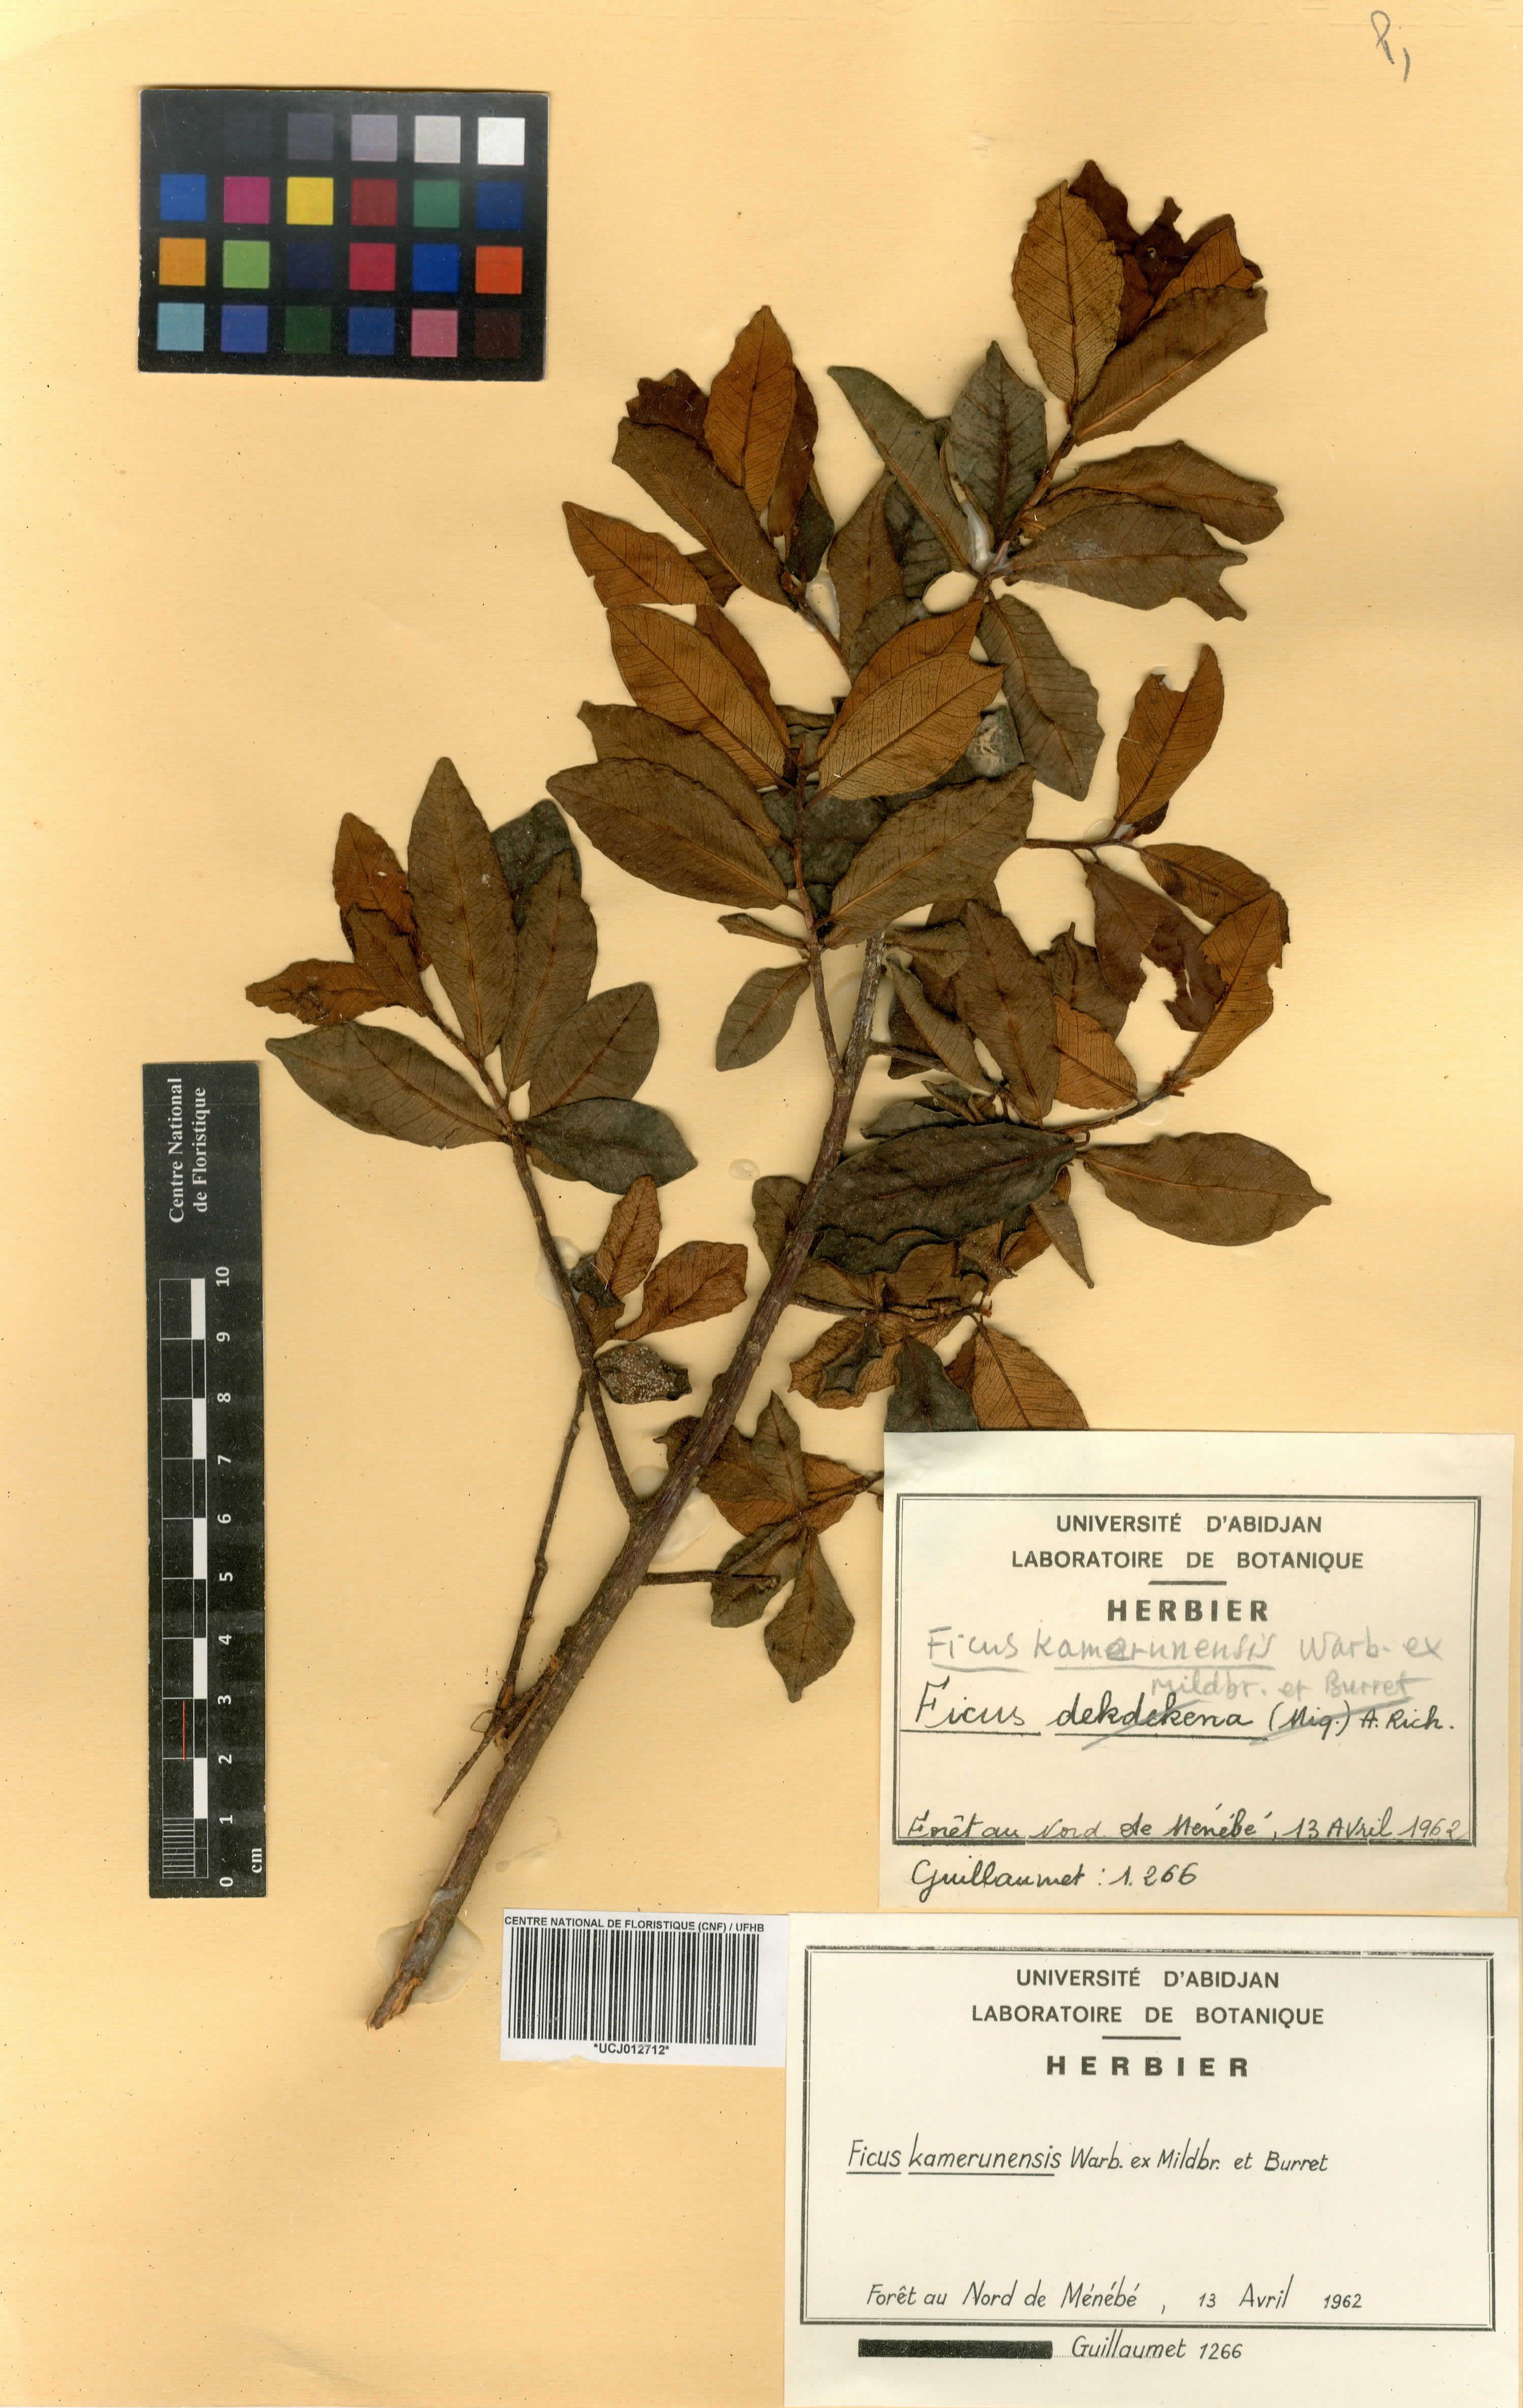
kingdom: Plantae
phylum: Tracheophyta
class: Magnoliopsida
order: Rosales
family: Moraceae
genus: Ficus
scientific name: Ficus kamerunensis
